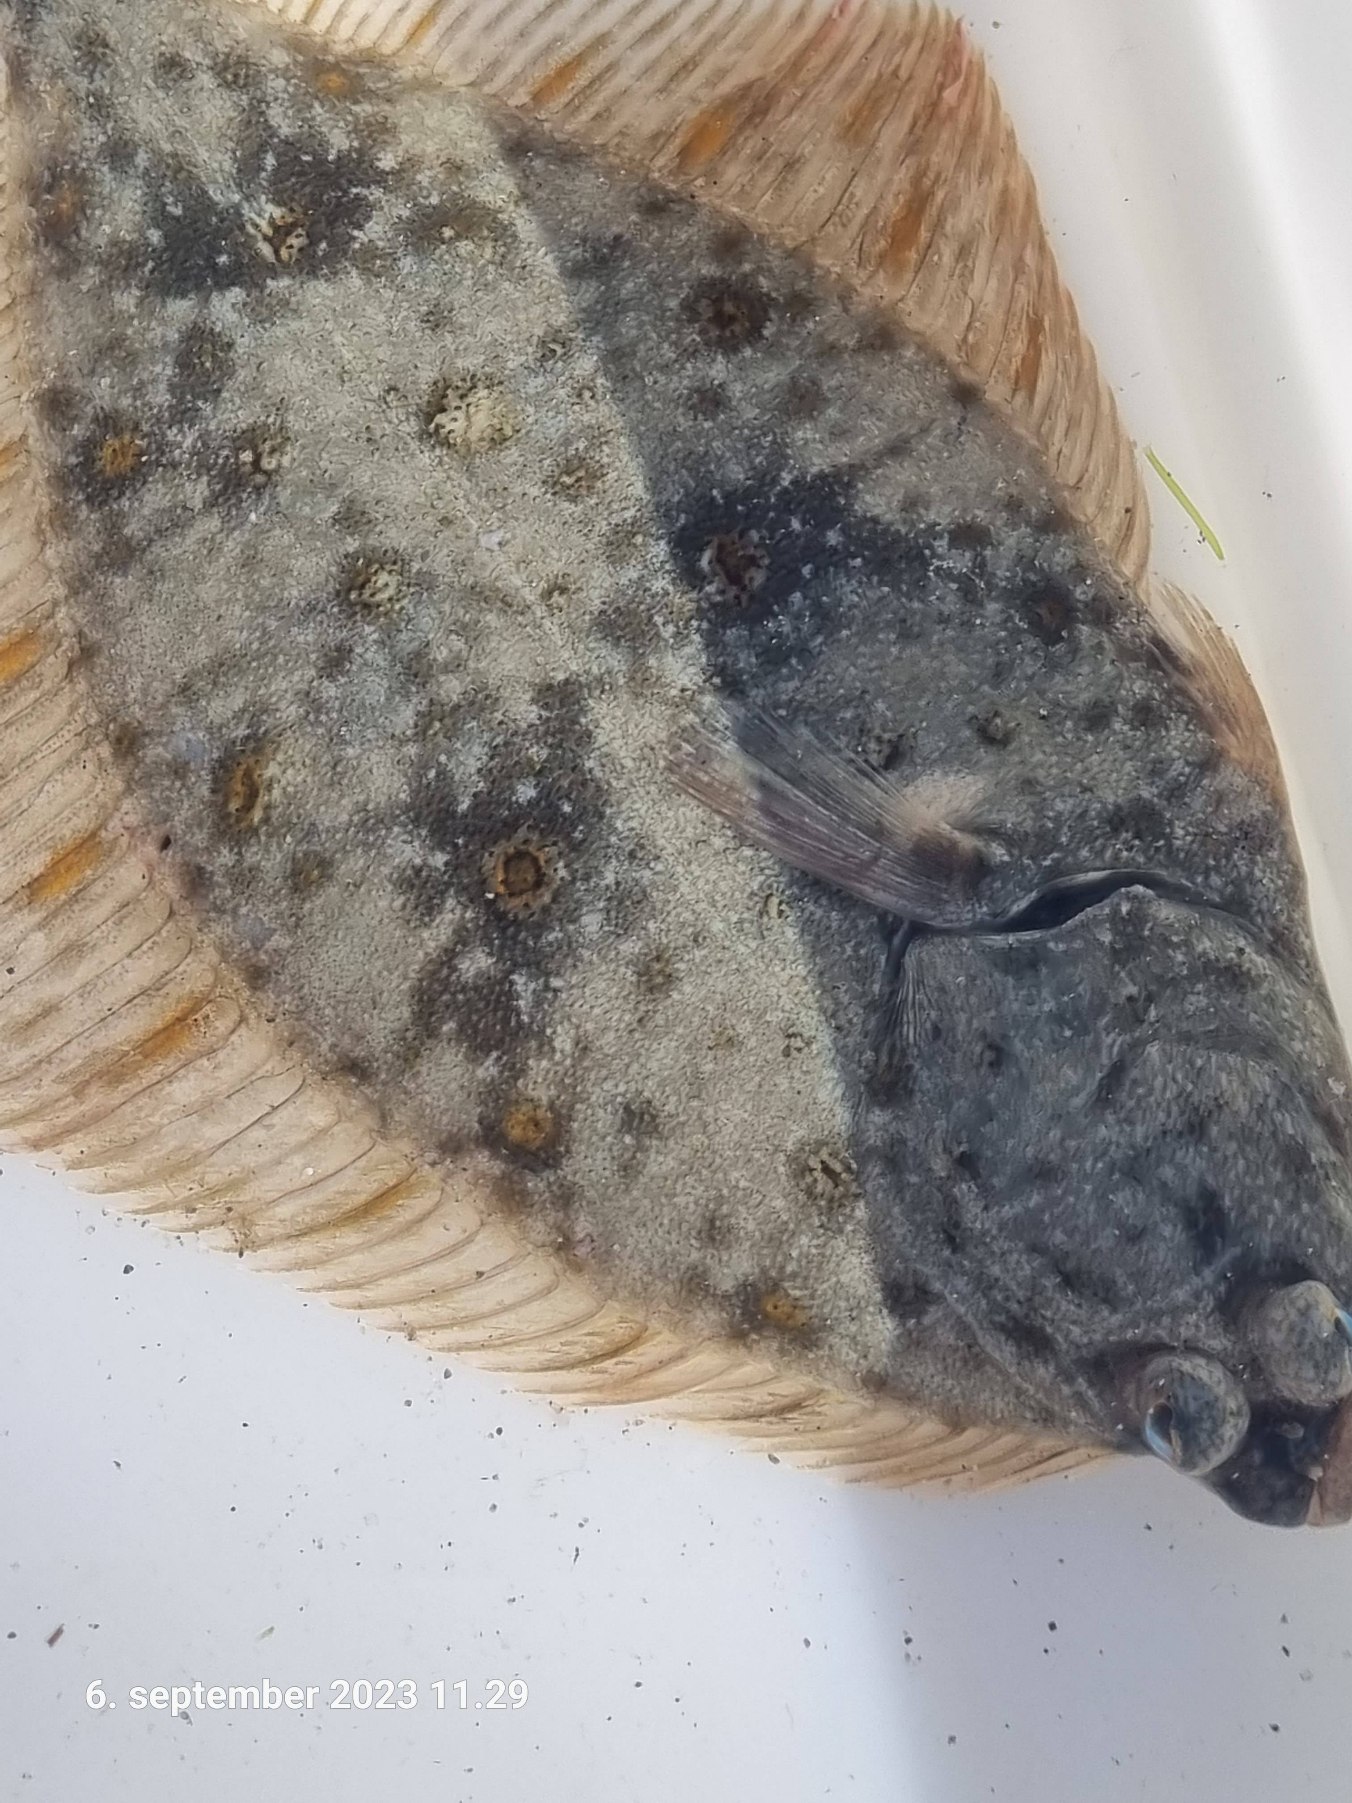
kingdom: Animalia
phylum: Chordata
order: Pleuronectiformes
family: Pleuronectidae
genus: Platichthys
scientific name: Platichthys flesus
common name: Skrubbe
